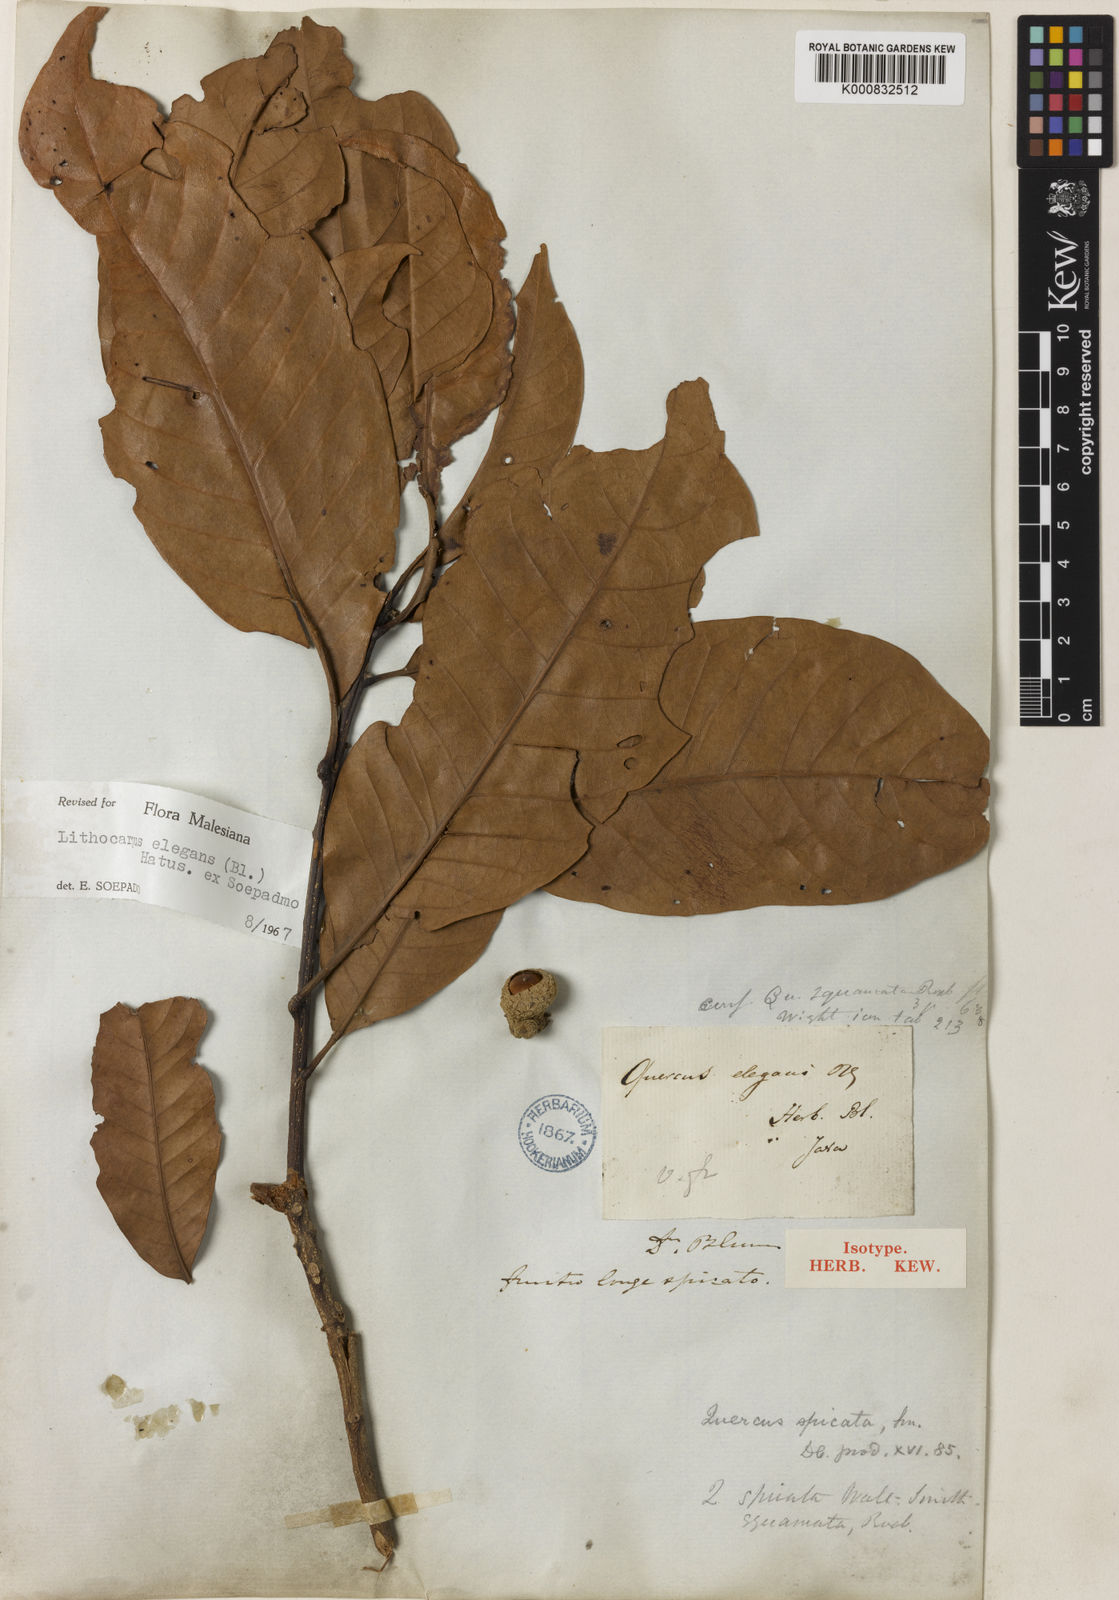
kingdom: Plantae
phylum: Tracheophyta
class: Magnoliopsida
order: Fagales
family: Fagaceae
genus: Lithocarpus
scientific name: Lithocarpus elegans
